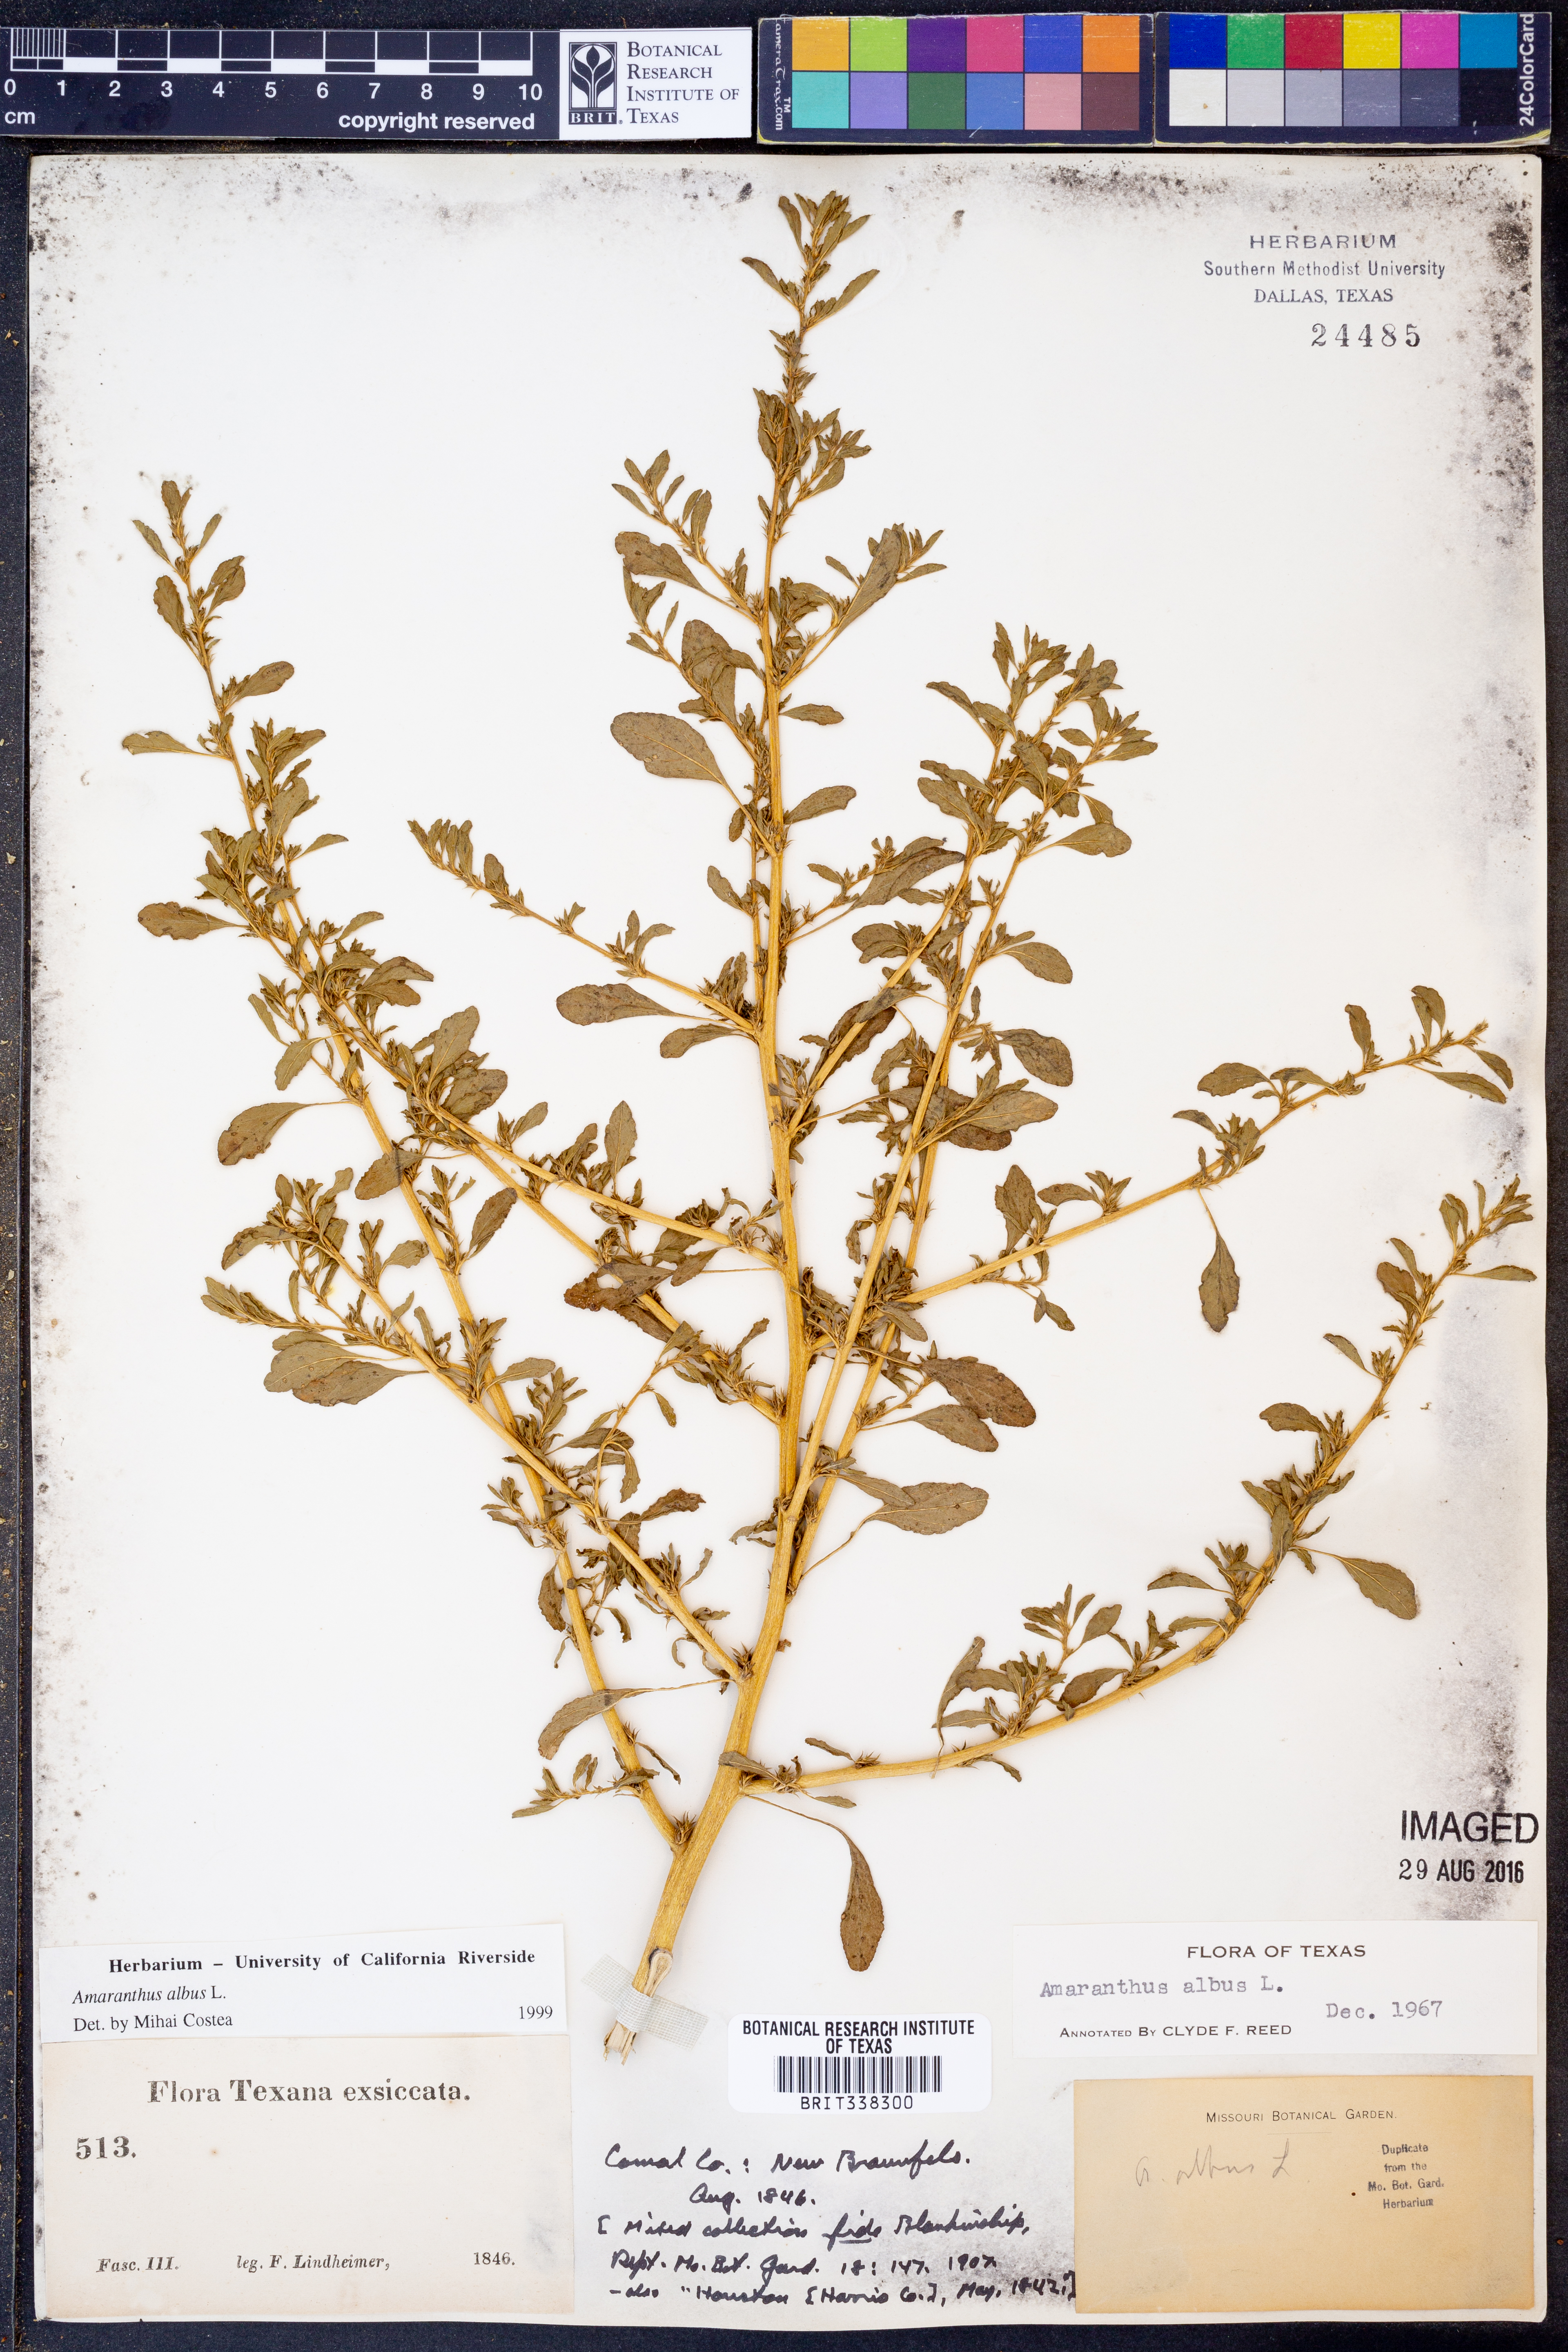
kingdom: Plantae
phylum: Tracheophyta
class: Magnoliopsida
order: Caryophyllales
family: Amaranthaceae
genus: Amaranthus
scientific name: Amaranthus albus
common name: White pigweed
